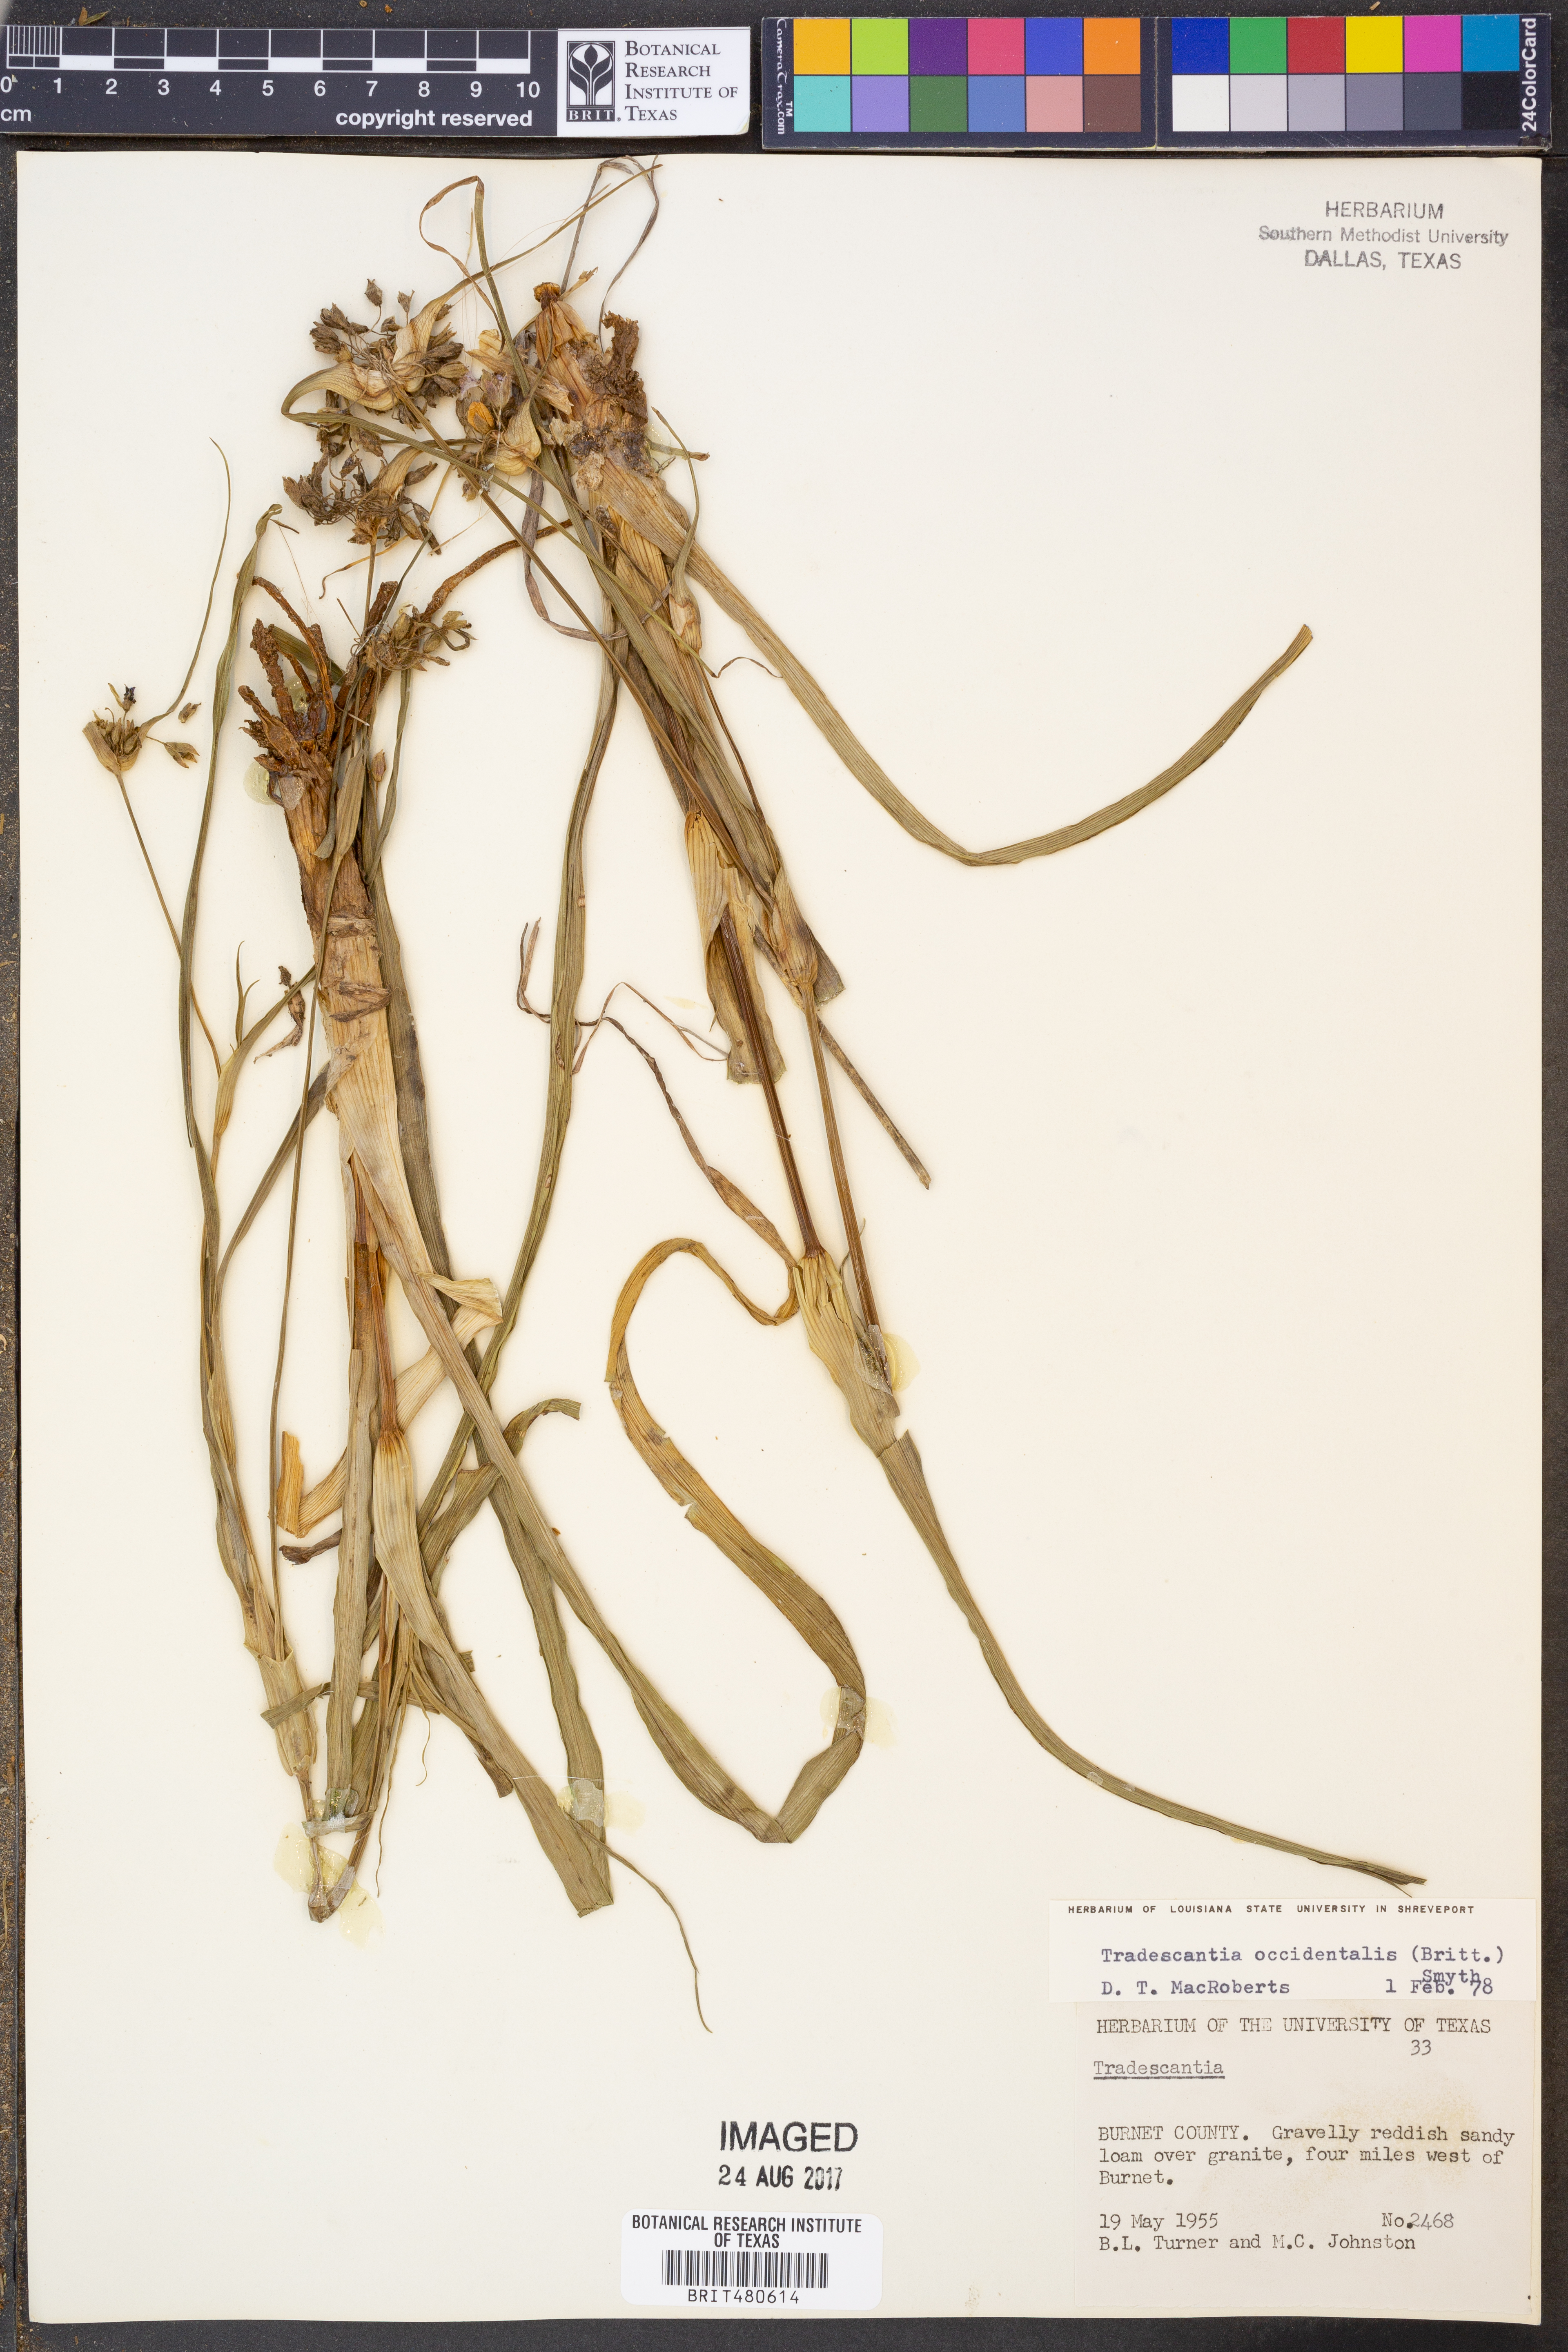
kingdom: Plantae
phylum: Tracheophyta
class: Liliopsida
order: Commelinales
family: Commelinaceae
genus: Tradescantia
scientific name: Tradescantia occidentalis
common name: Prairie spiderwort
